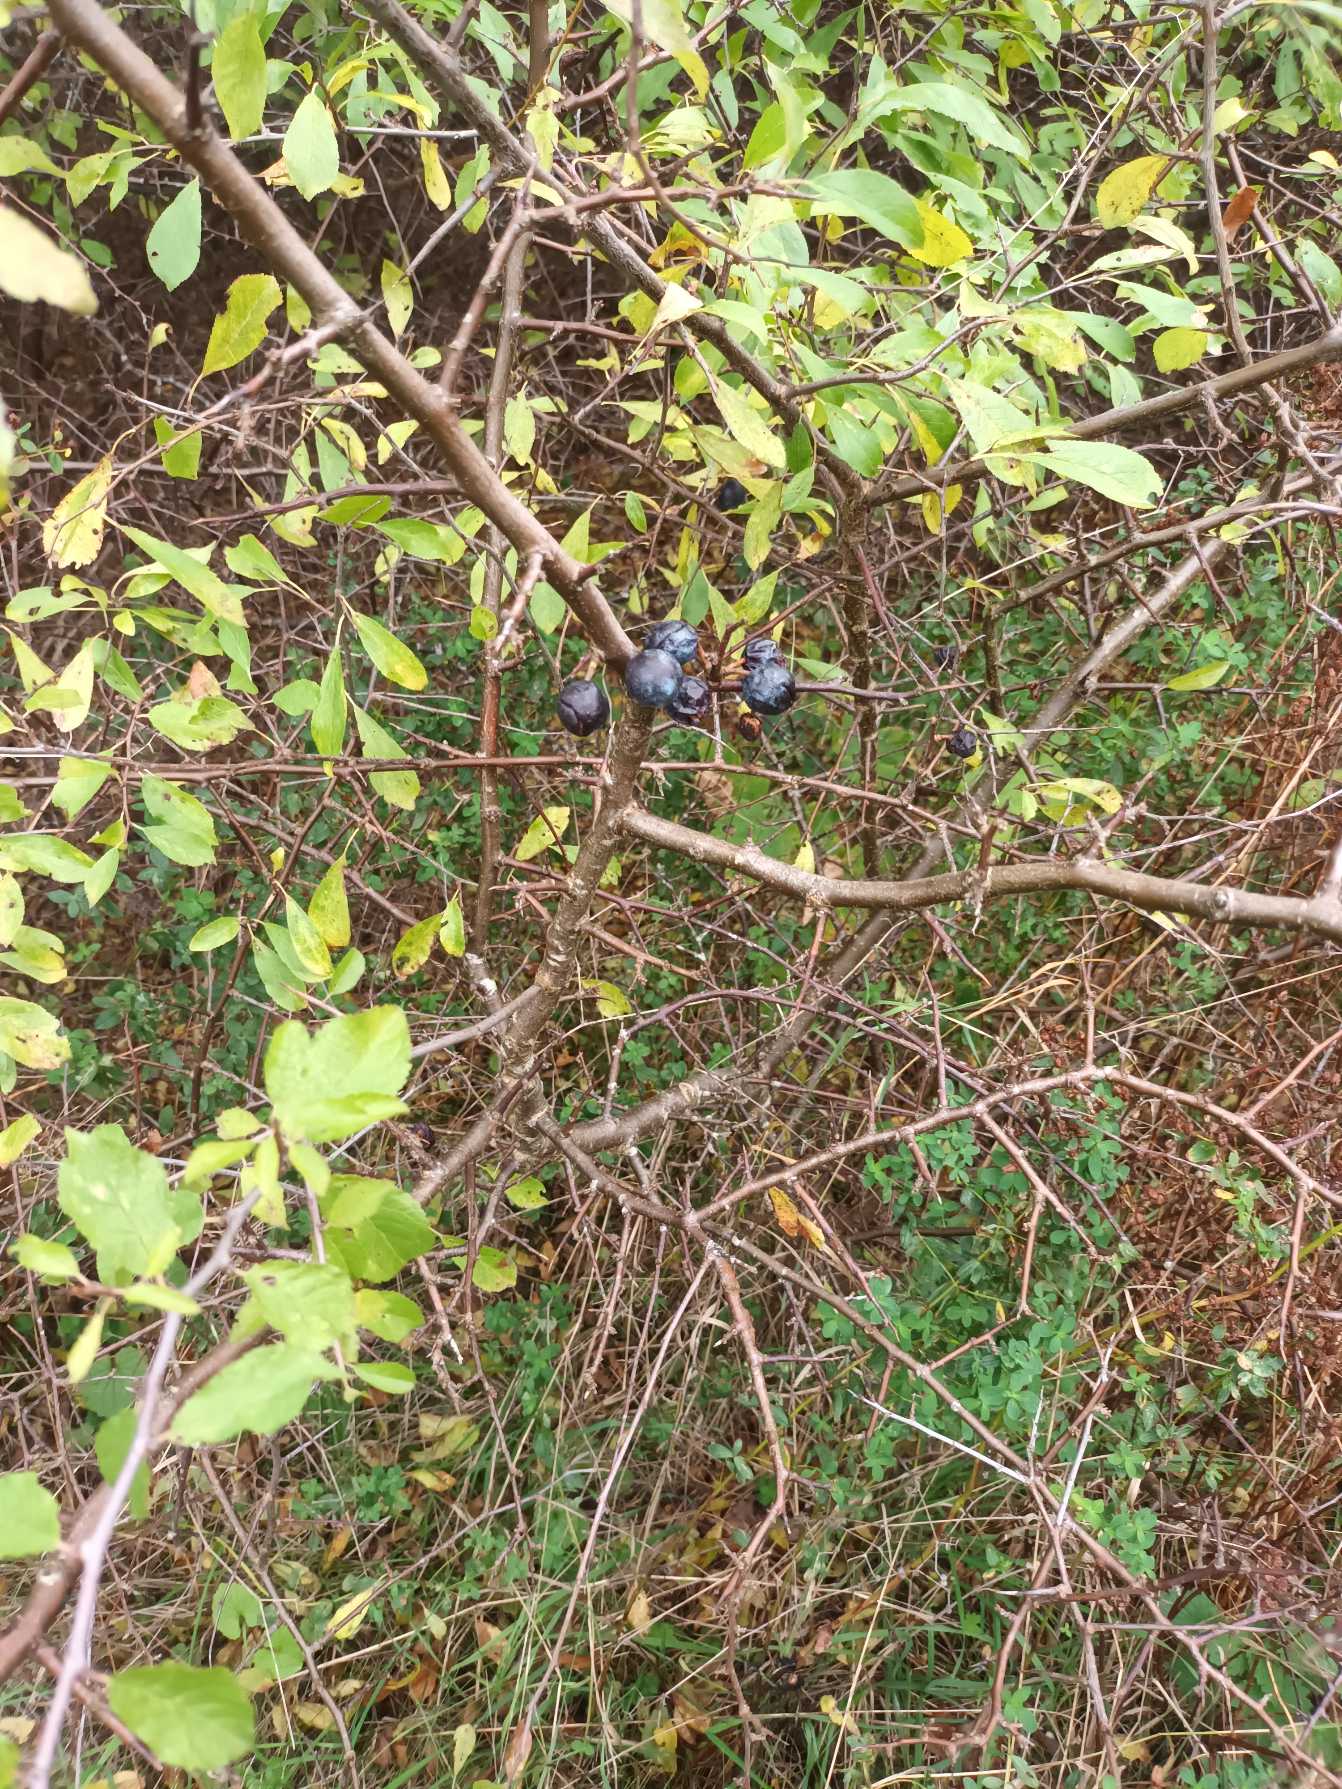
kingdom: Plantae
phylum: Tracheophyta
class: Magnoliopsida
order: Rosales
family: Rosaceae
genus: Prunus
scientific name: Prunus spinosa
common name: Slåen
